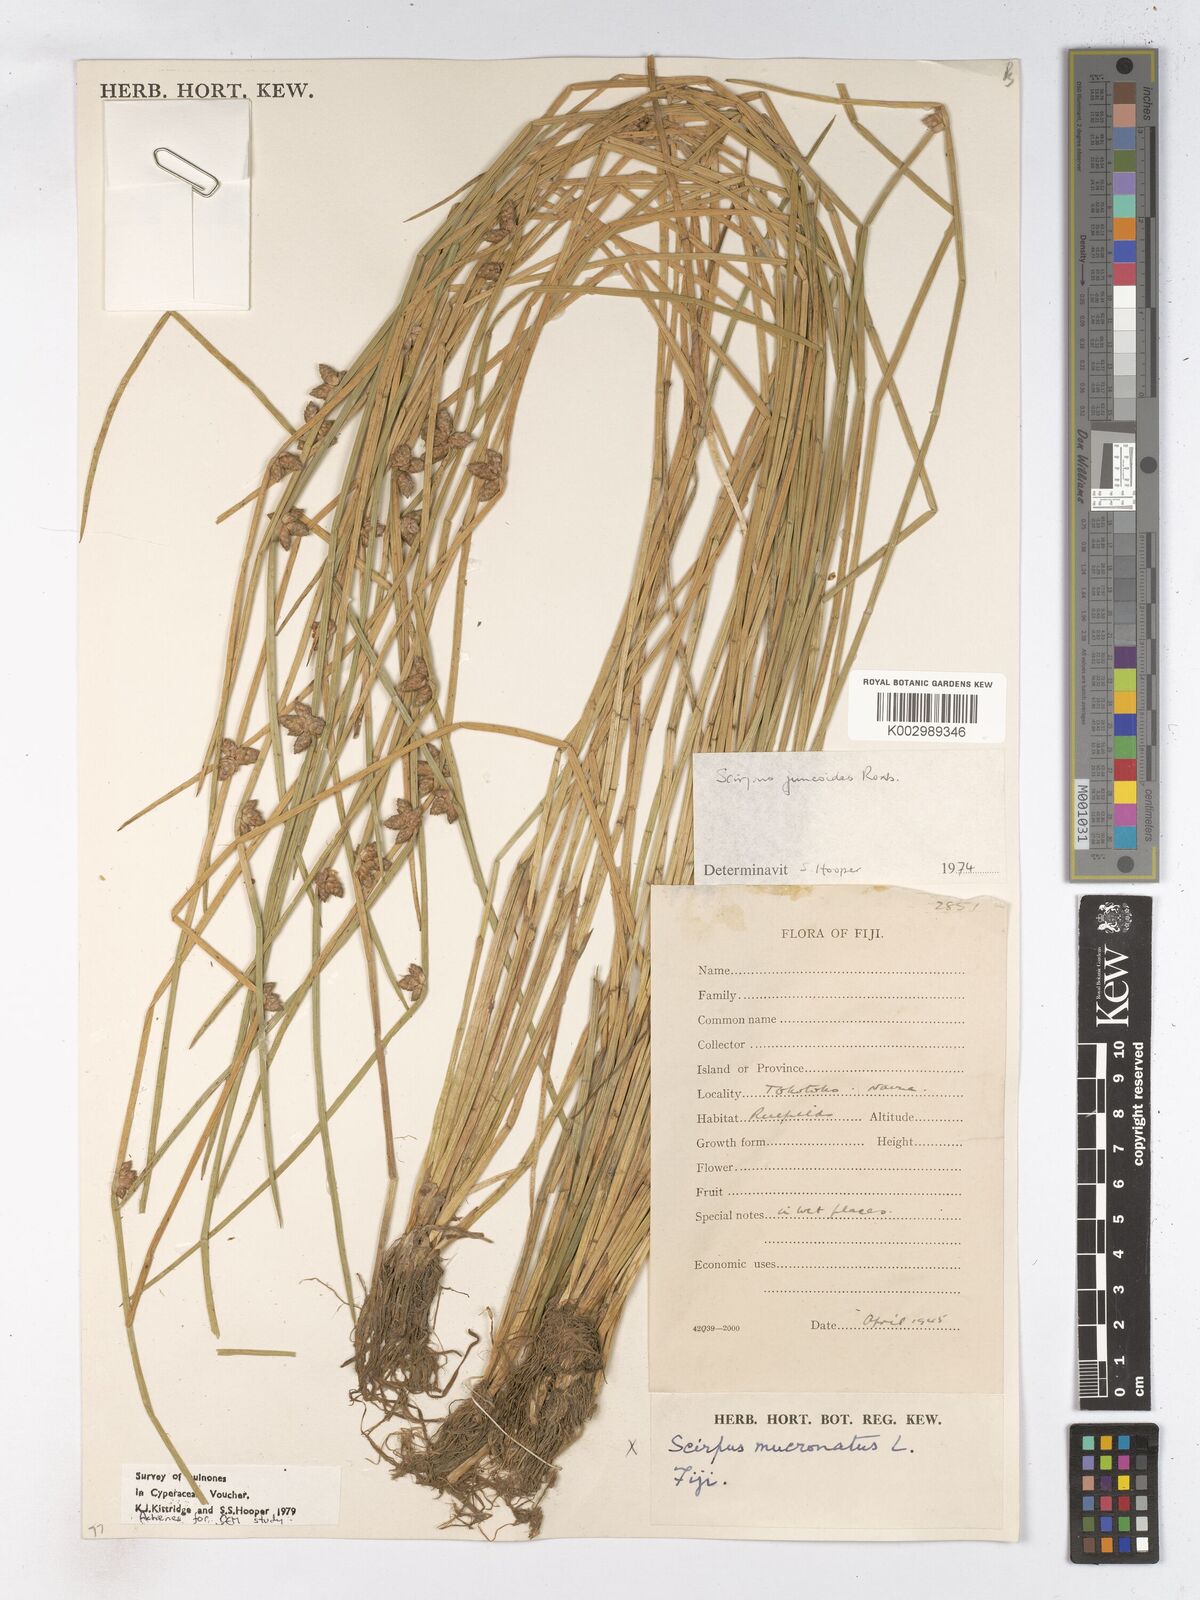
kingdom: Plantae
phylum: Tracheophyta
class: Liliopsida
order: Poales
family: Cyperaceae
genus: Schoenoplectiella
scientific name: Schoenoplectiella juncoides
